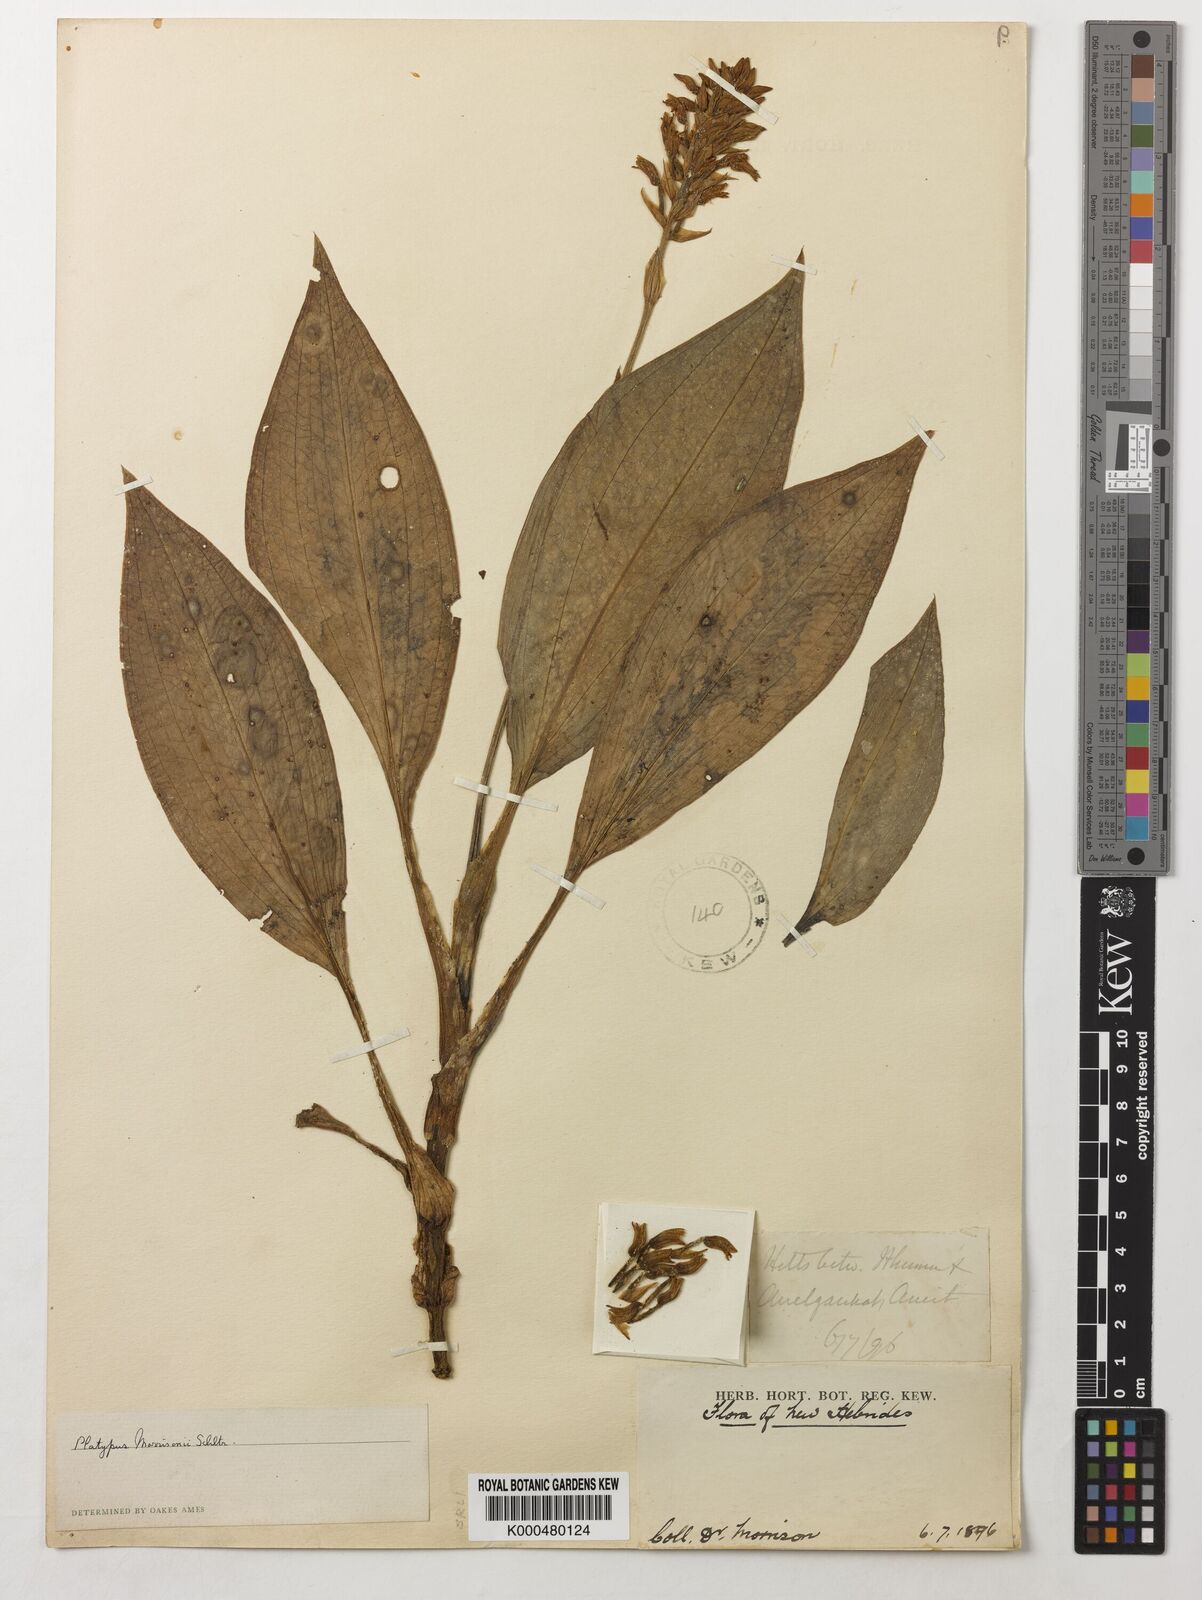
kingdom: Plantae
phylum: Tracheophyta
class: Liliopsida
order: Asparagales
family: Orchidaceae
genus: Platylepis
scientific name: Platylepis grandiflora
